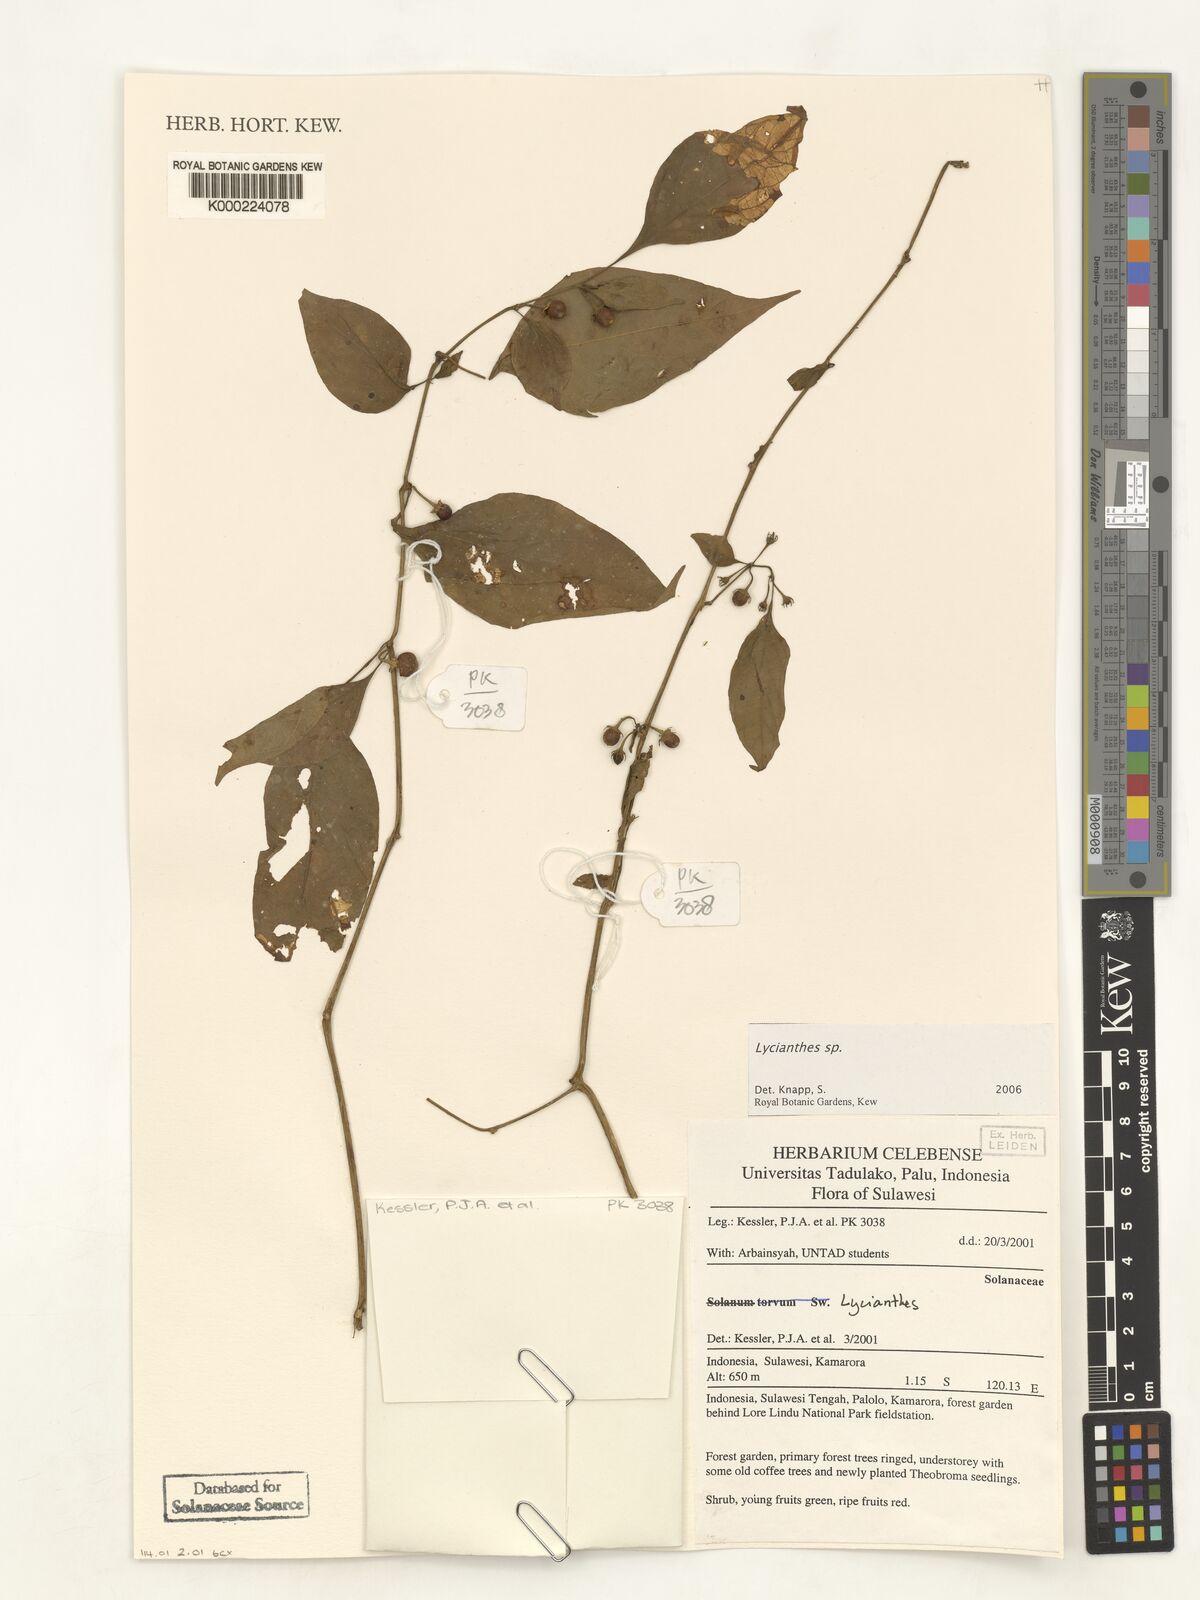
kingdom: Plantae
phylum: Tracheophyta
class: Magnoliopsida
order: Solanales
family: Solanaceae
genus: Lycianthes
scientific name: Lycianthes
